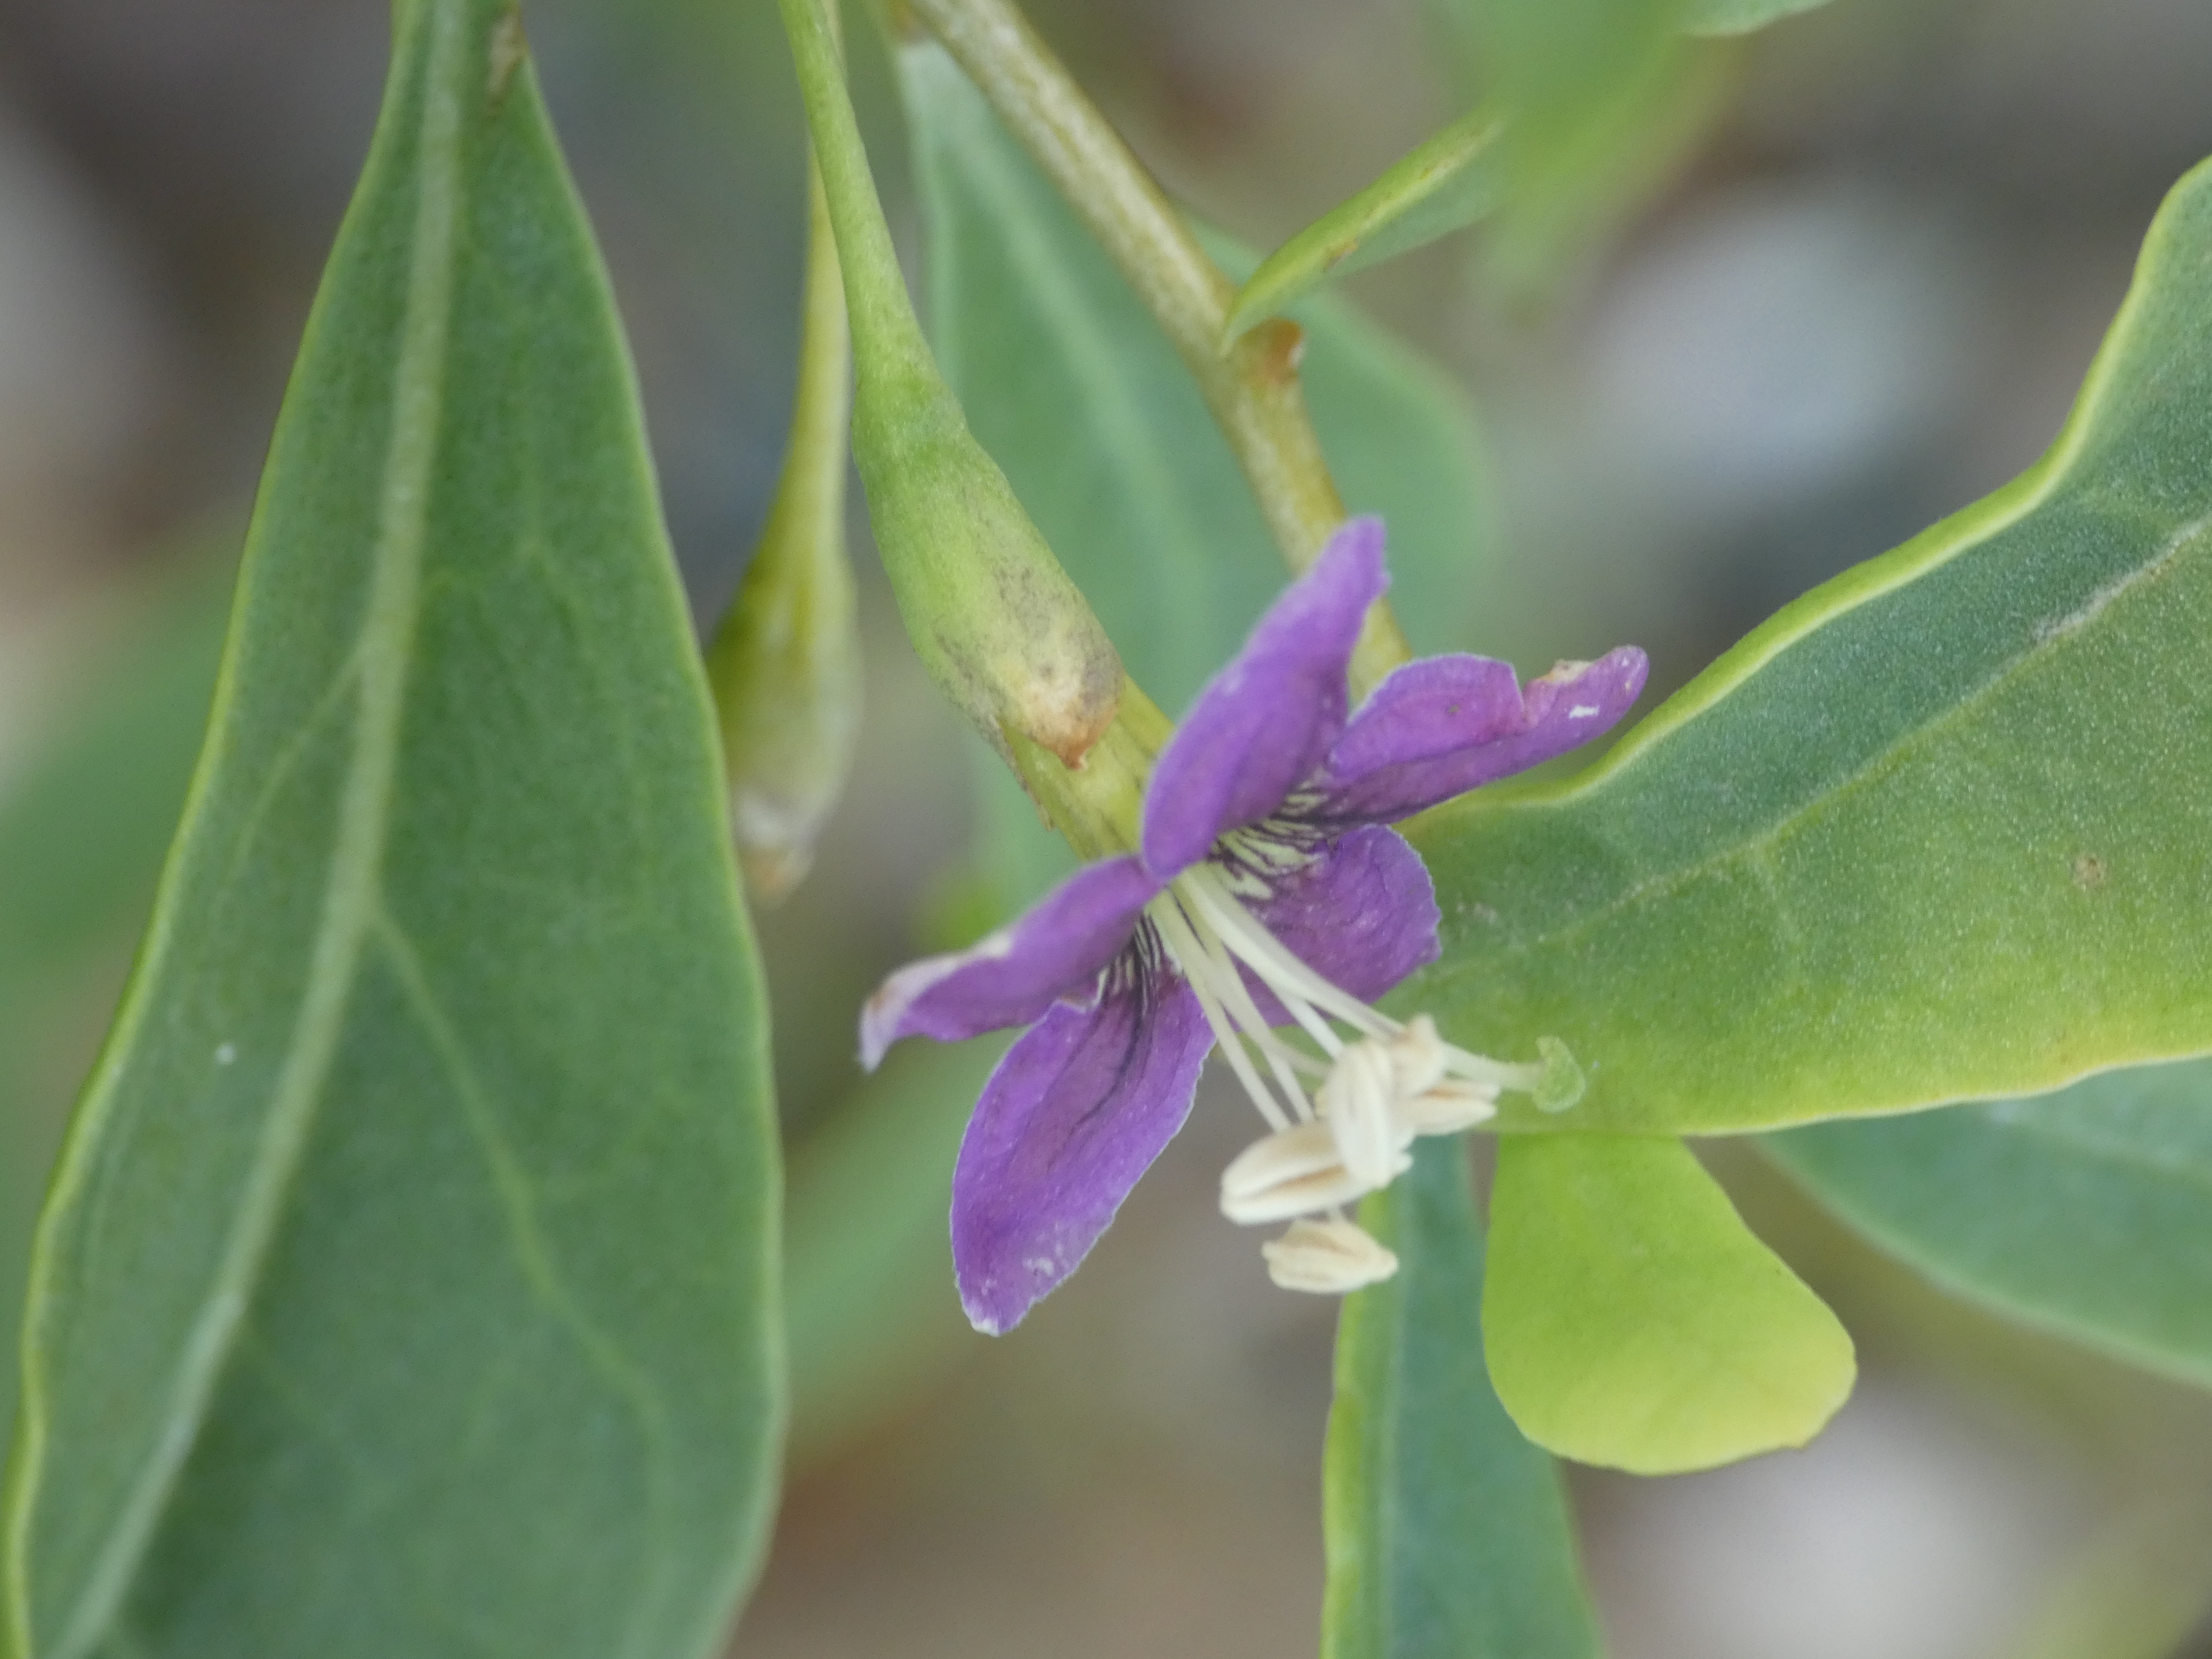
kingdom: Plantae
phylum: Tracheophyta
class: Magnoliopsida
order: Solanales
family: Solanaceae
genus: Lycium
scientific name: Lycium barbarum
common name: Bukketorn
